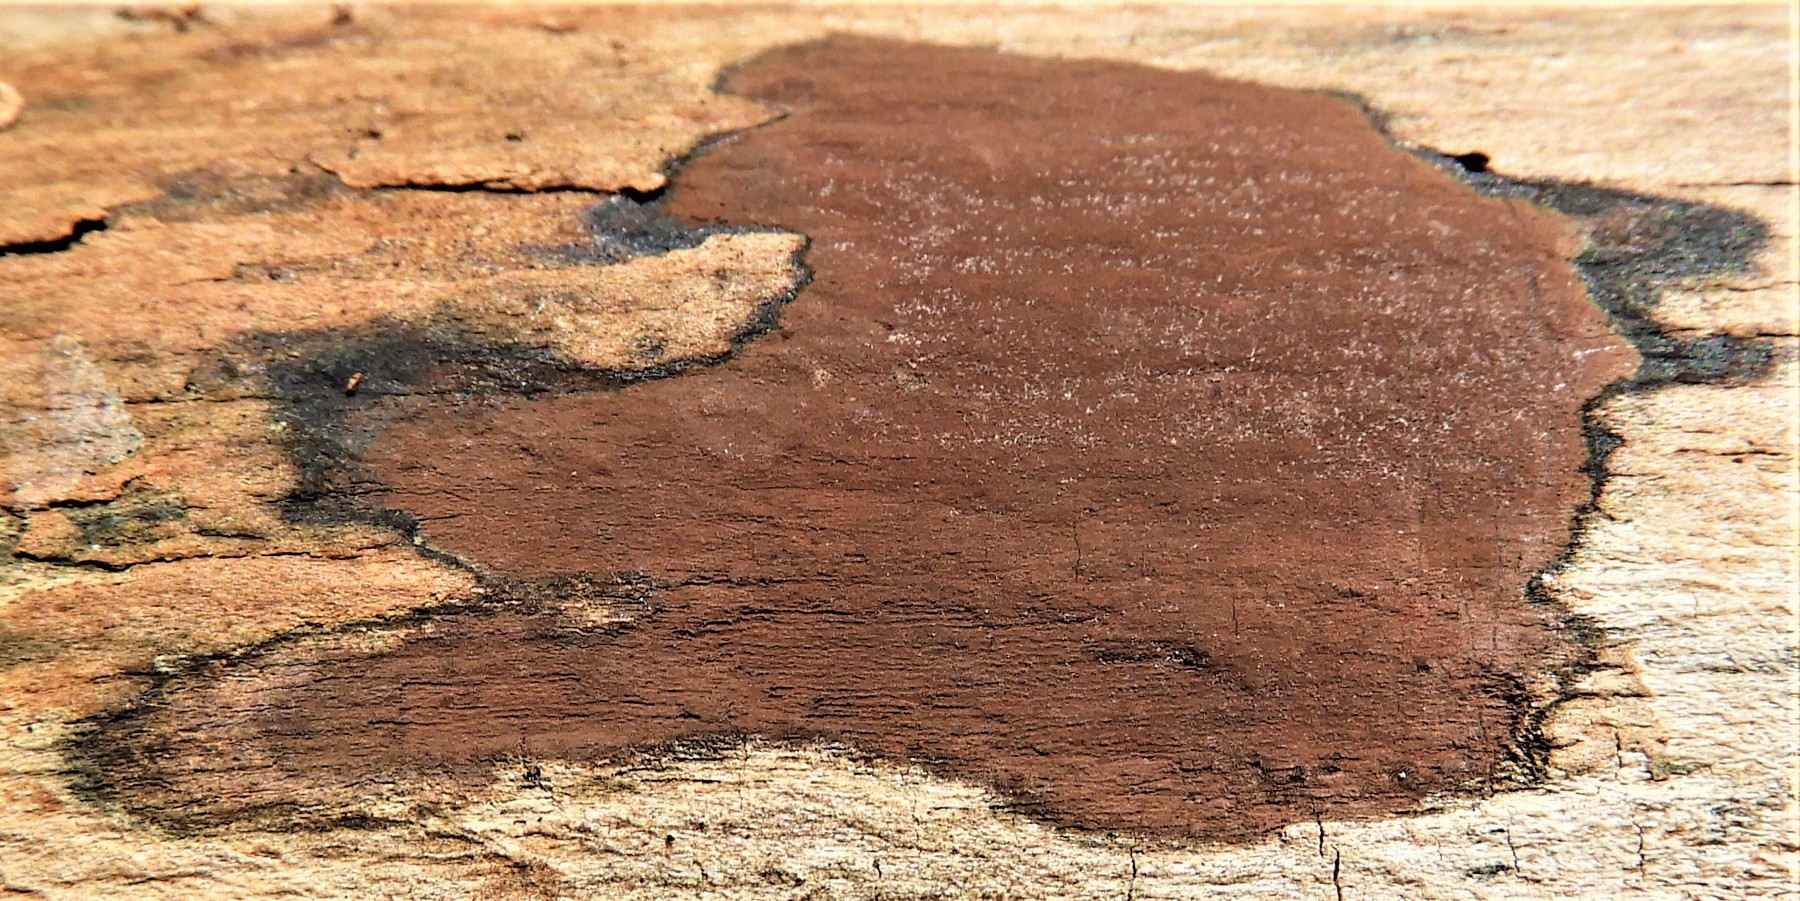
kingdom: Fungi
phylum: Ascomycota
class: Sordariomycetes
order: Xylariales
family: Hypoxylaceae
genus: Hypoxylon
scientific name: Hypoxylon petriniae
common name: nedsænket kulbær
